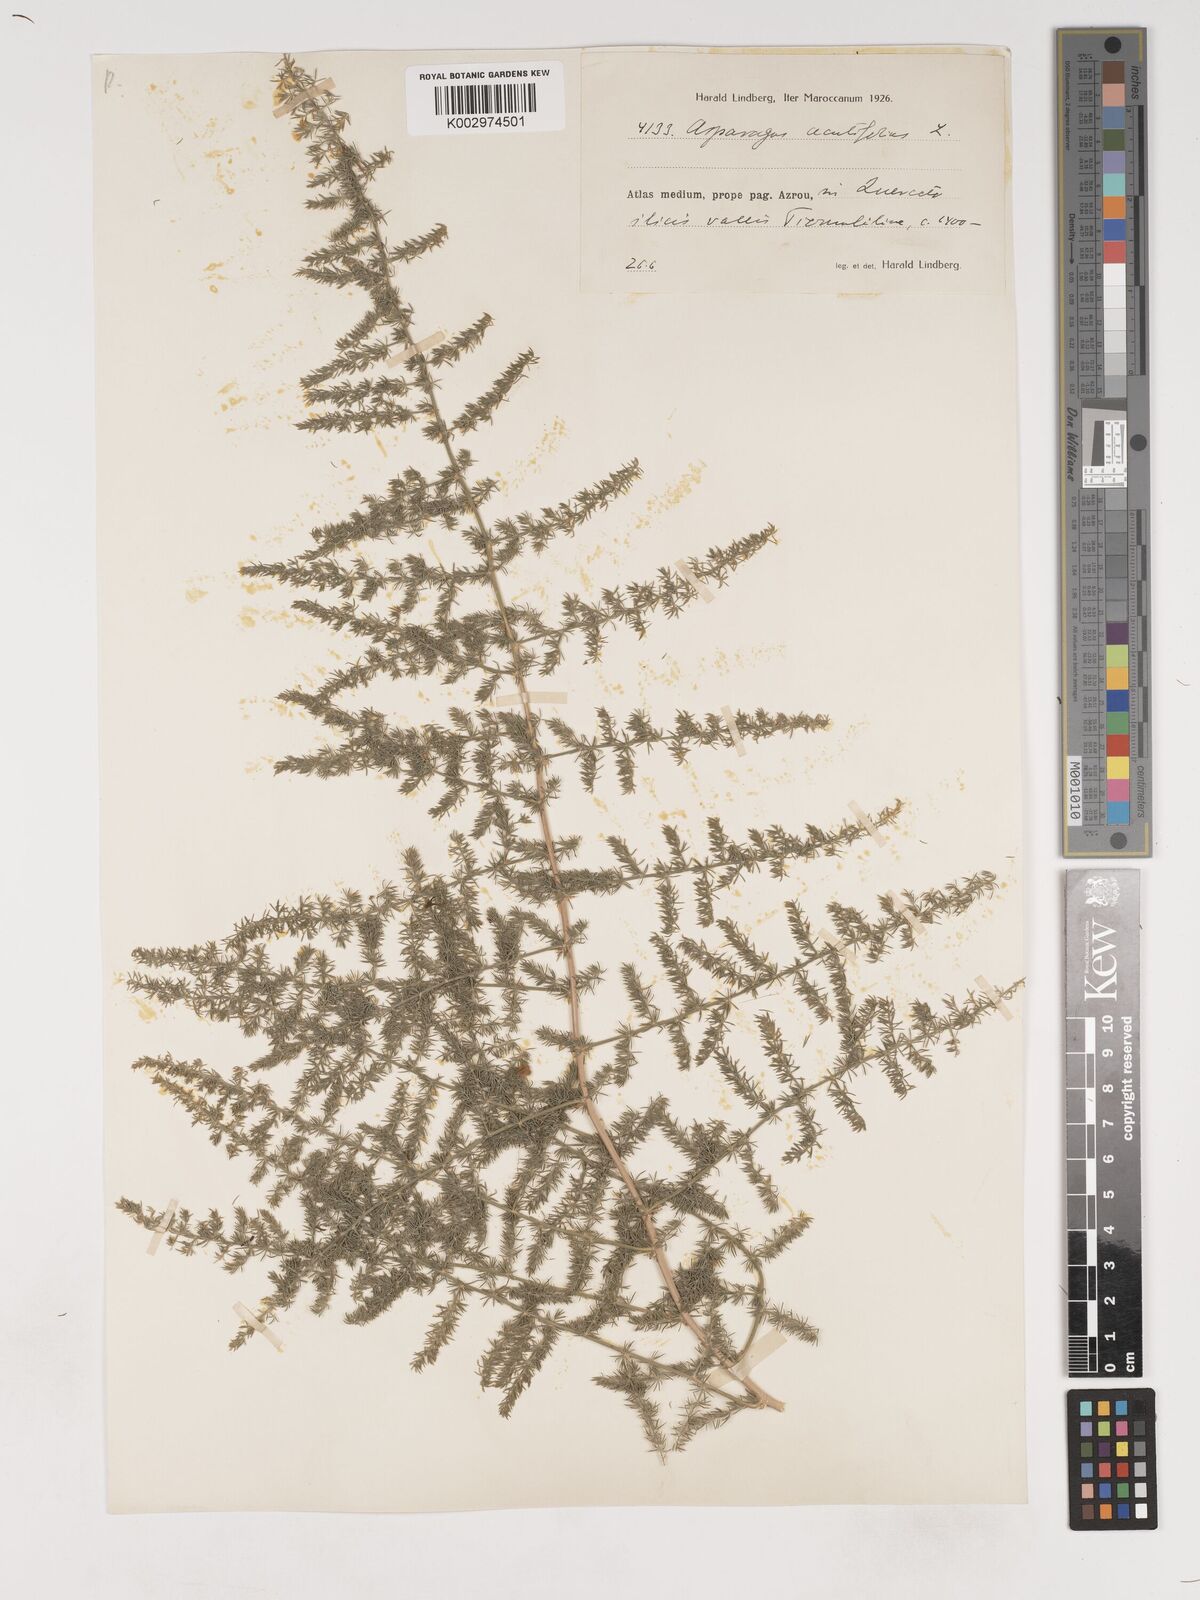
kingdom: Plantae
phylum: Tracheophyta
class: Liliopsida
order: Asparagales
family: Asparagaceae
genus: Asparagus
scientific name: Asparagus acutifolius
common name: Wild asparagus
